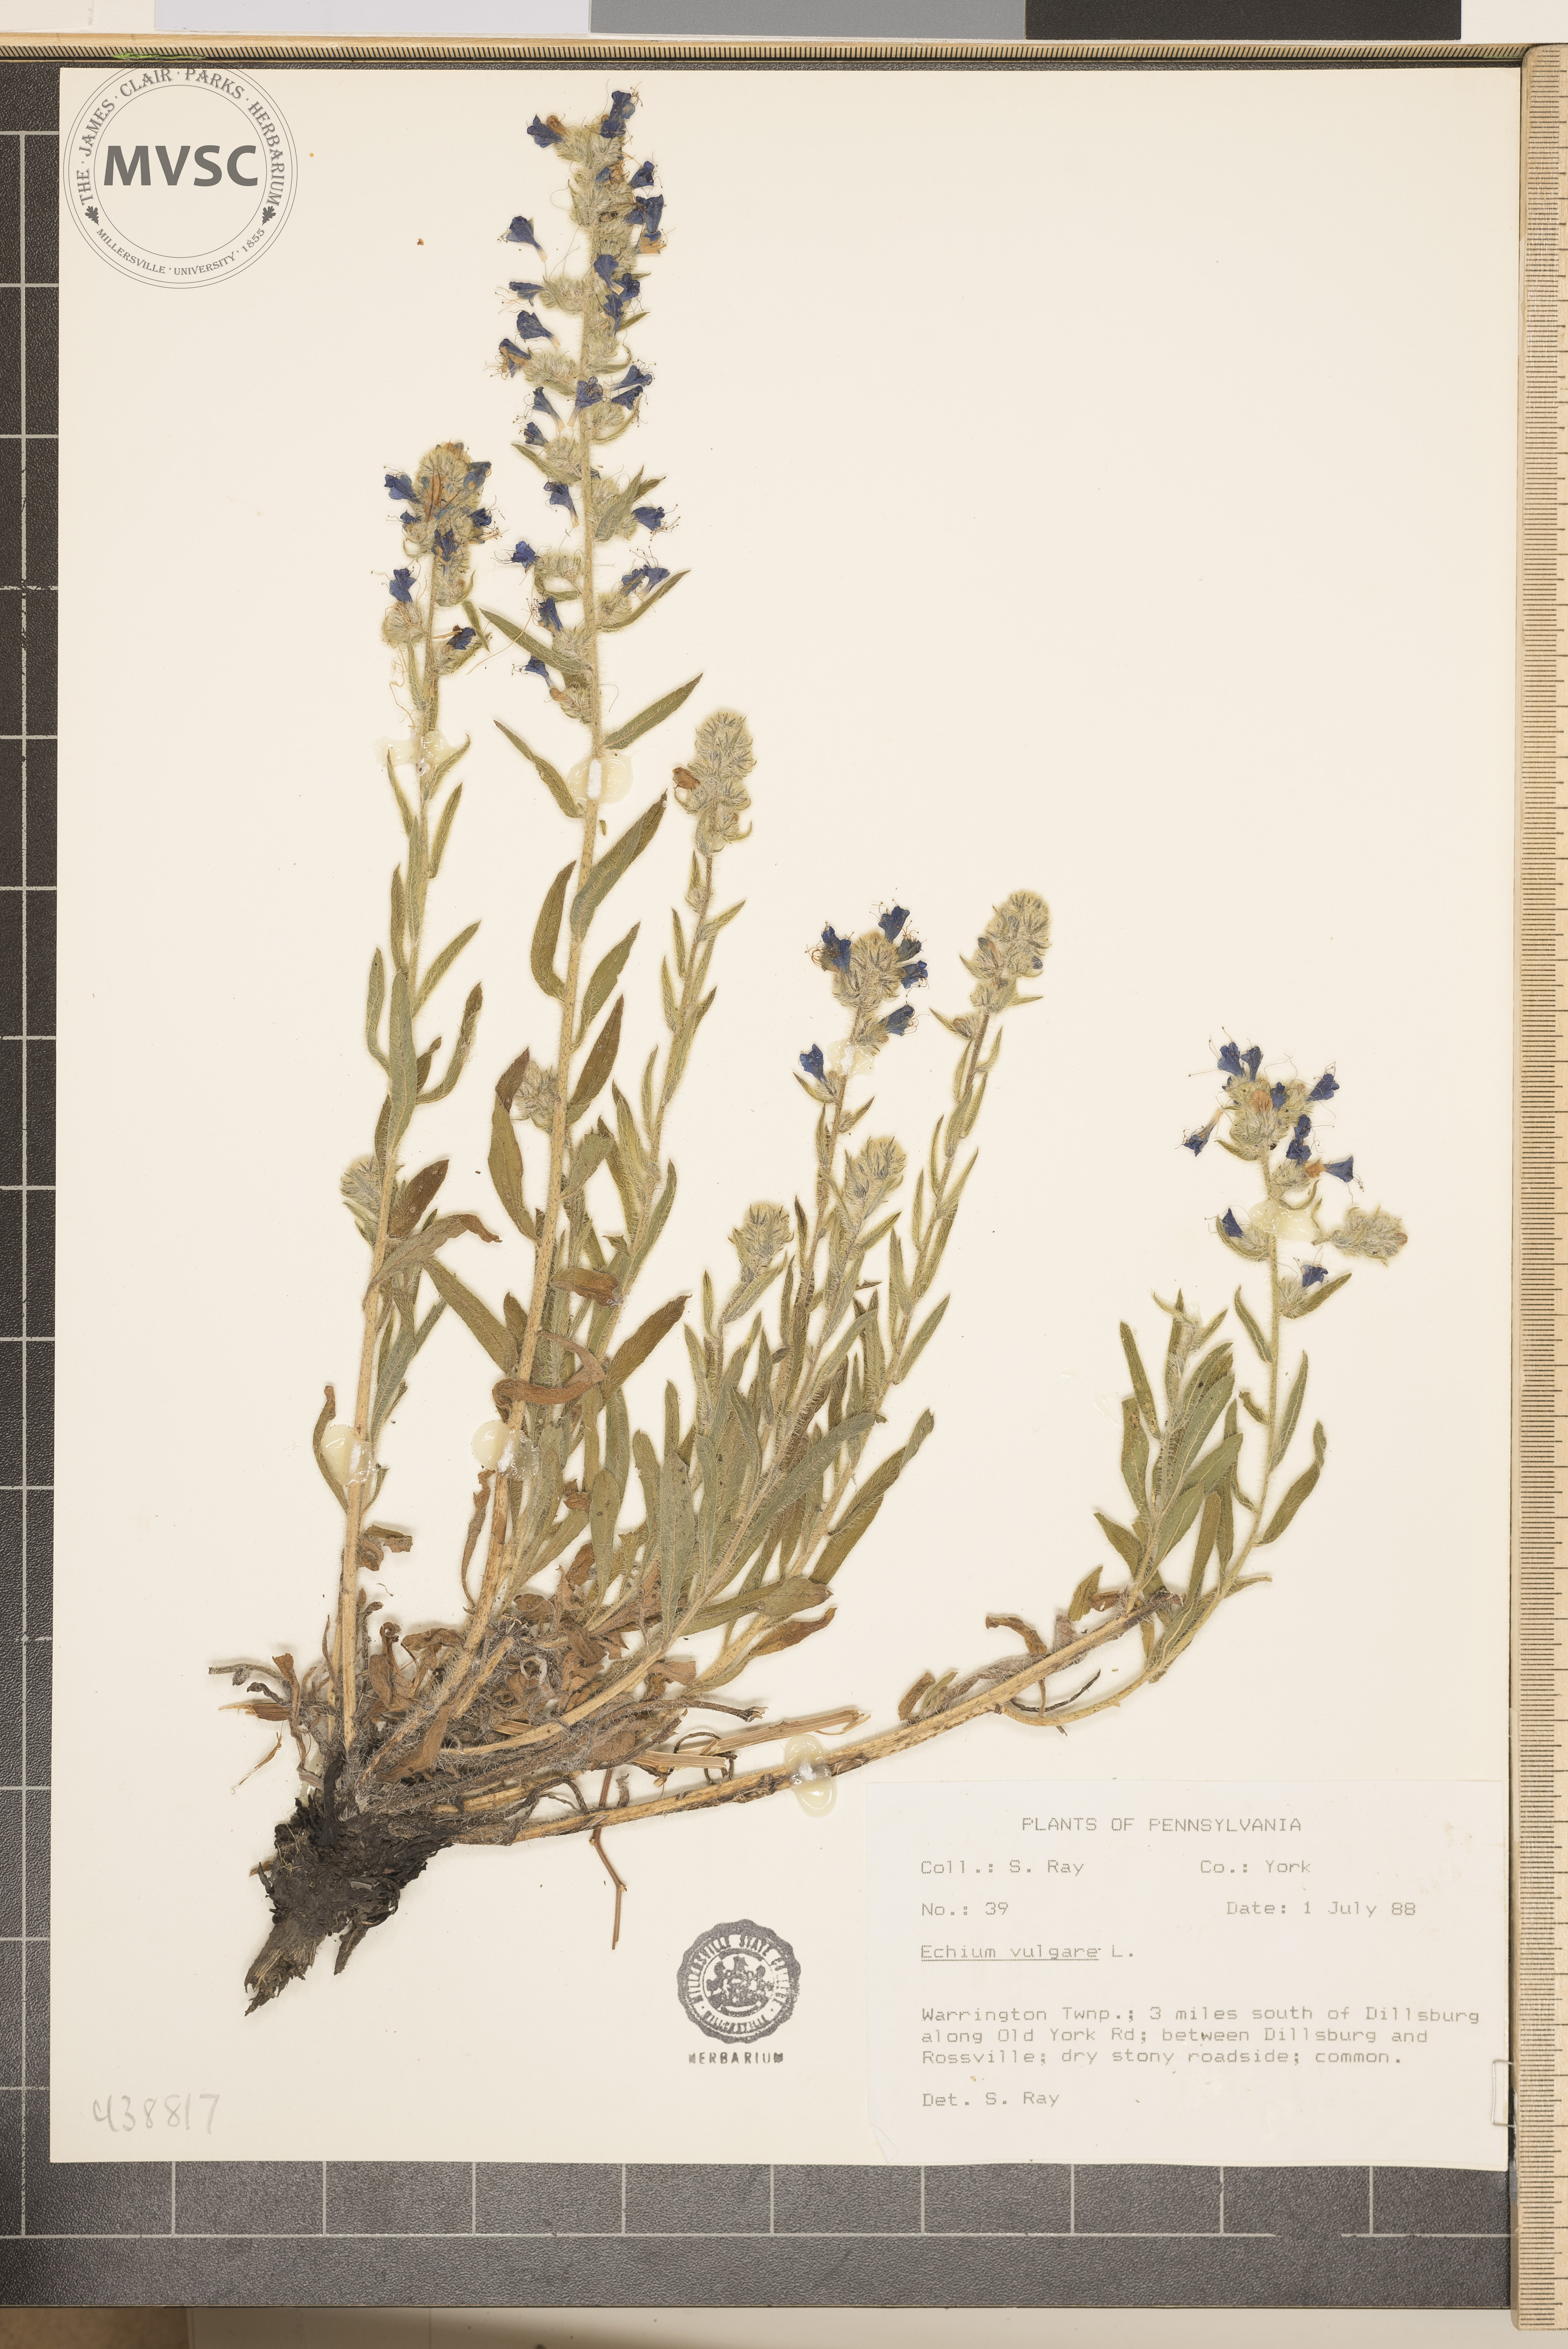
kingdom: Plantae
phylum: Tracheophyta
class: Magnoliopsida
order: Boraginales
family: Boraginaceae
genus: Echium
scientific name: Echium vulgare
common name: Common viper's bugloss
